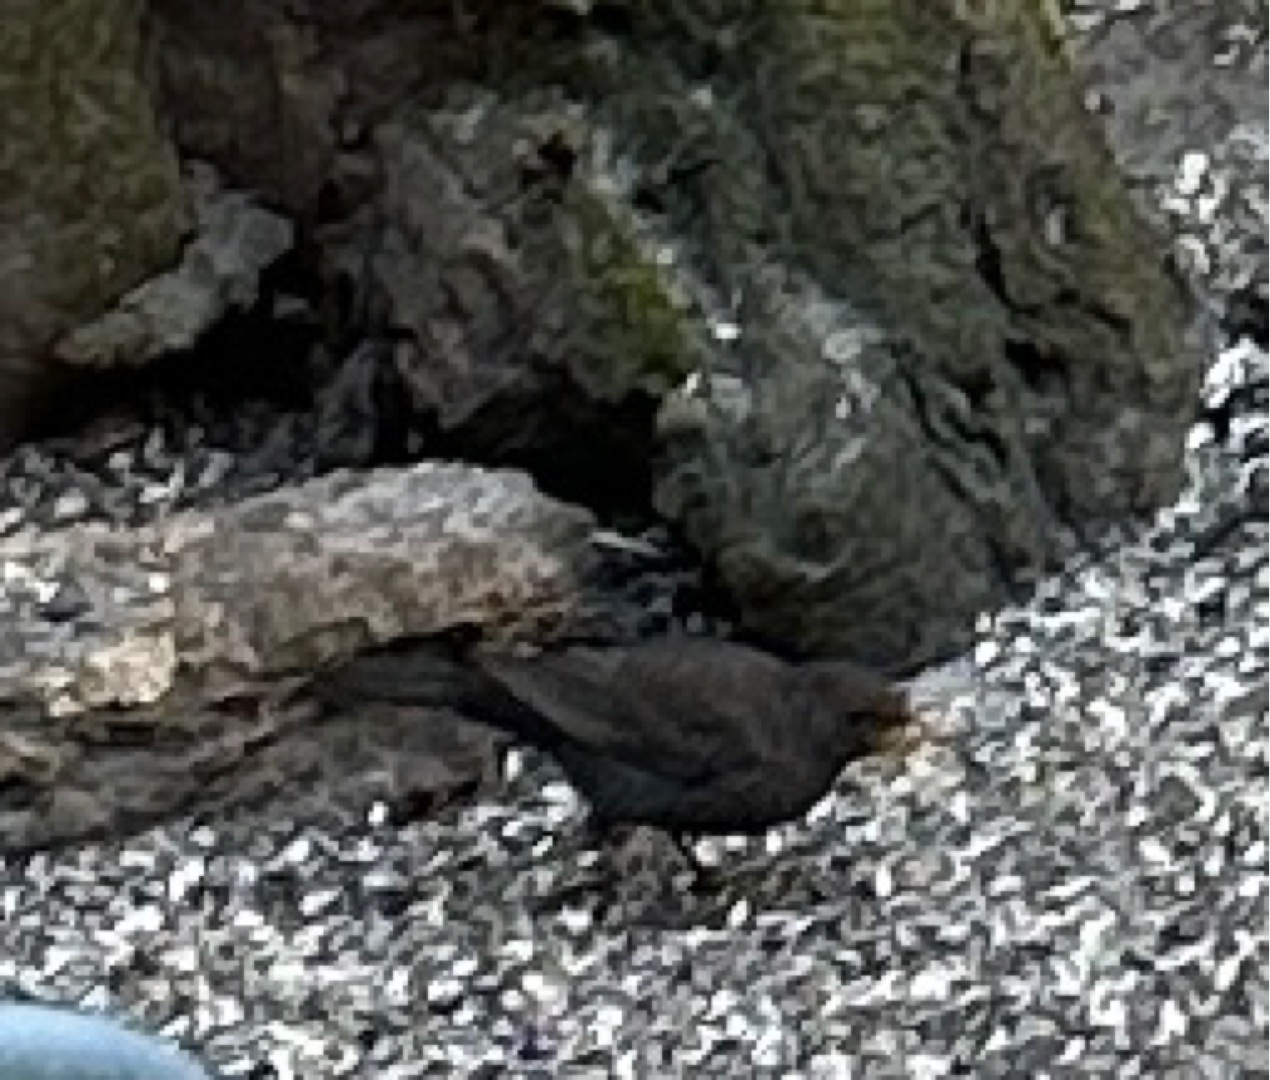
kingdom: Animalia
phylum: Chordata
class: Aves
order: Passeriformes
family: Turdidae
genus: Turdus
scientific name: Turdus merula
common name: Solsort
